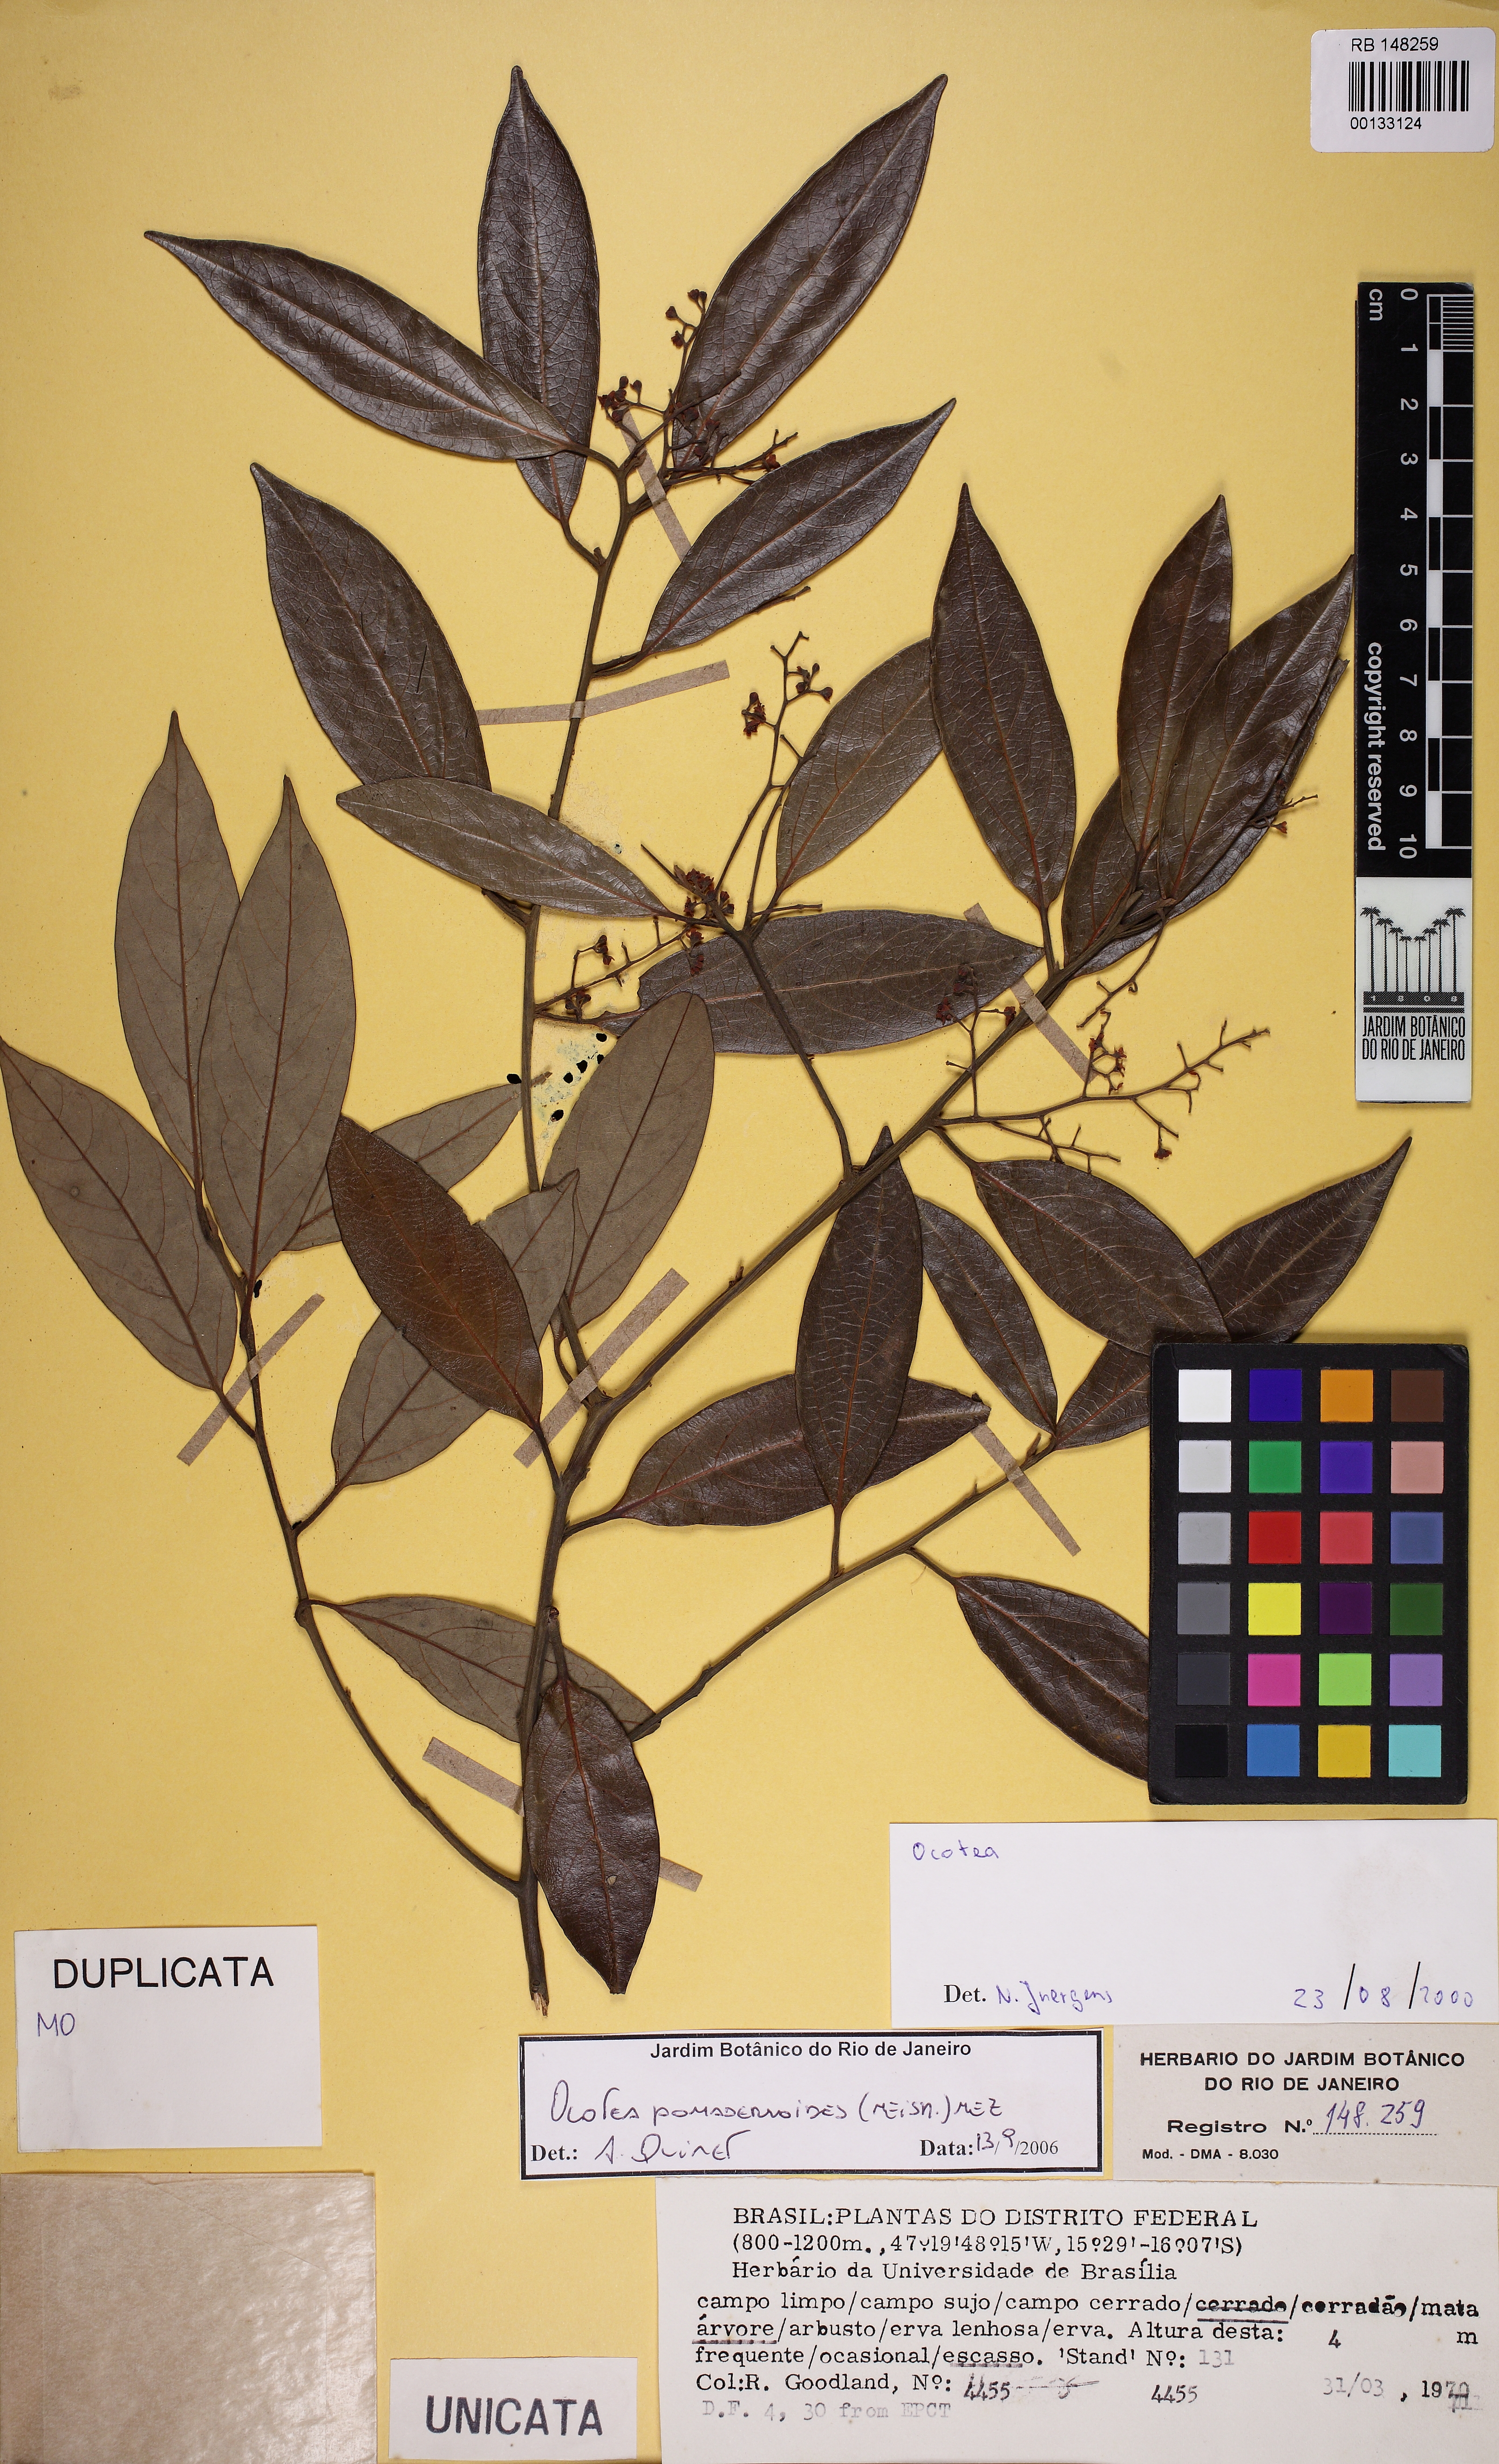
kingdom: Plantae
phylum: Tracheophyta
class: Magnoliopsida
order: Laurales
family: Lauraceae
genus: Ocotea
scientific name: Ocotea pomaderrioides
